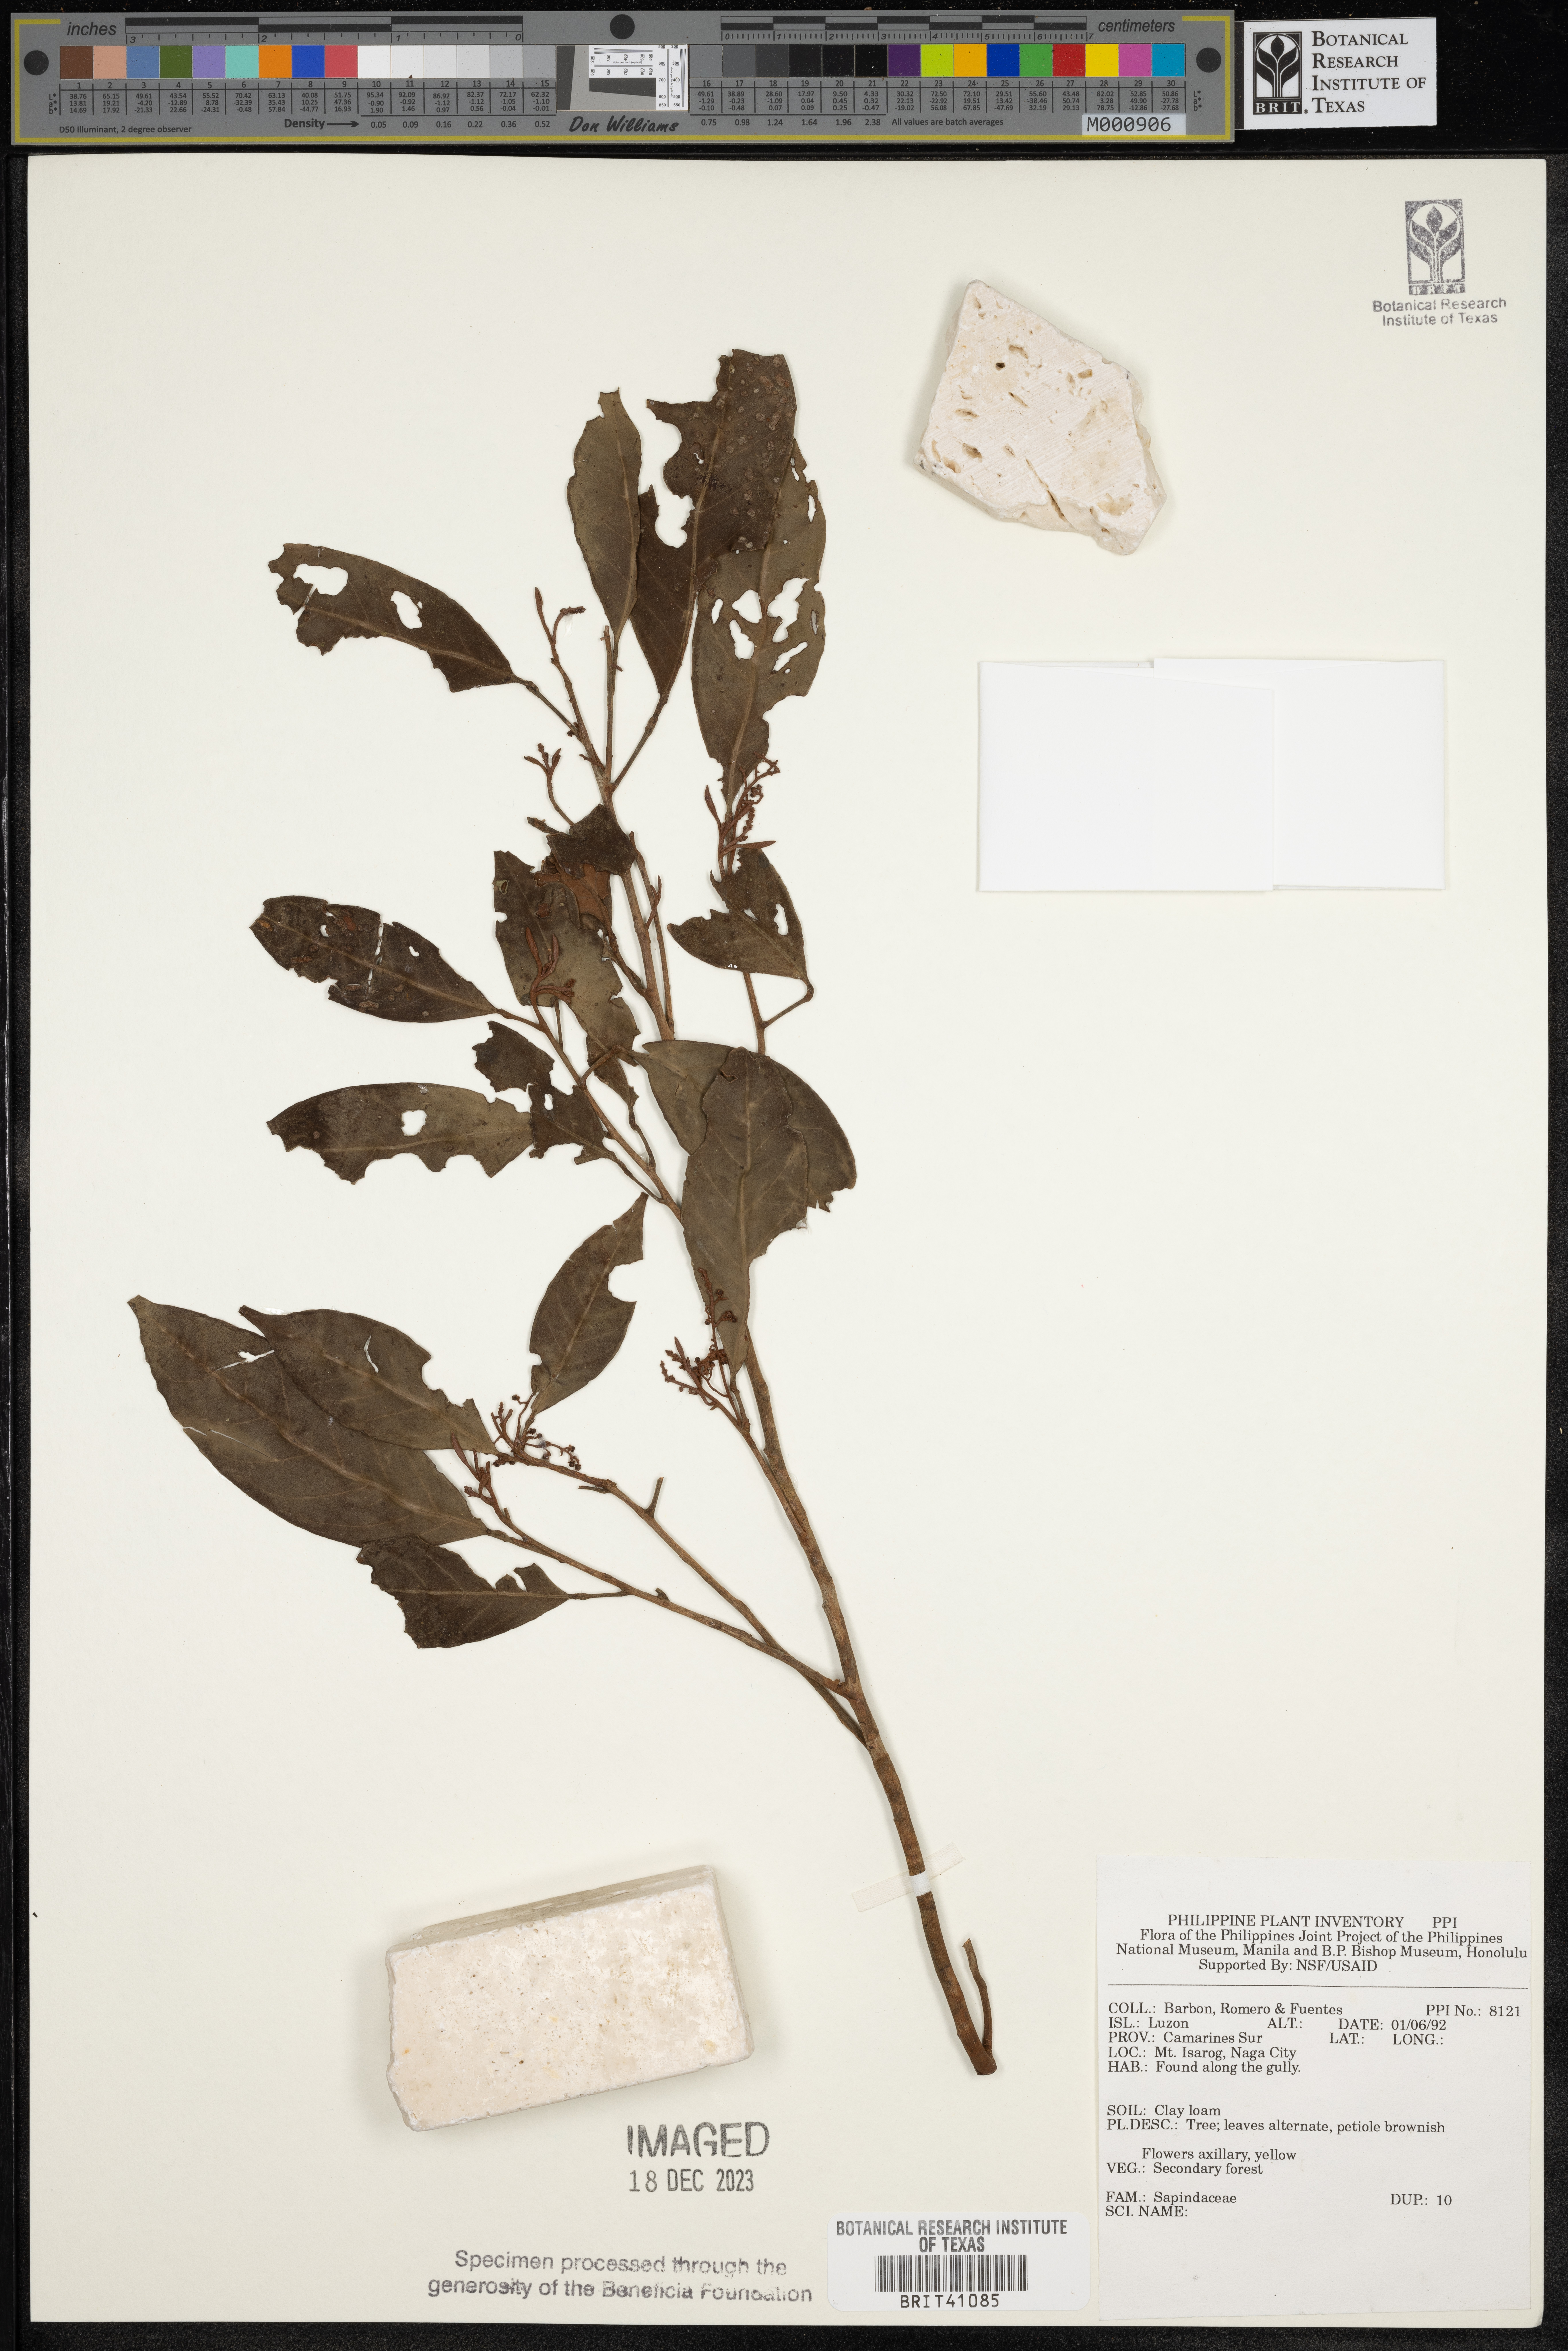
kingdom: Plantae
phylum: Tracheophyta
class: Magnoliopsida
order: Sapindales
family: Sapindaceae
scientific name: Sapindaceae
